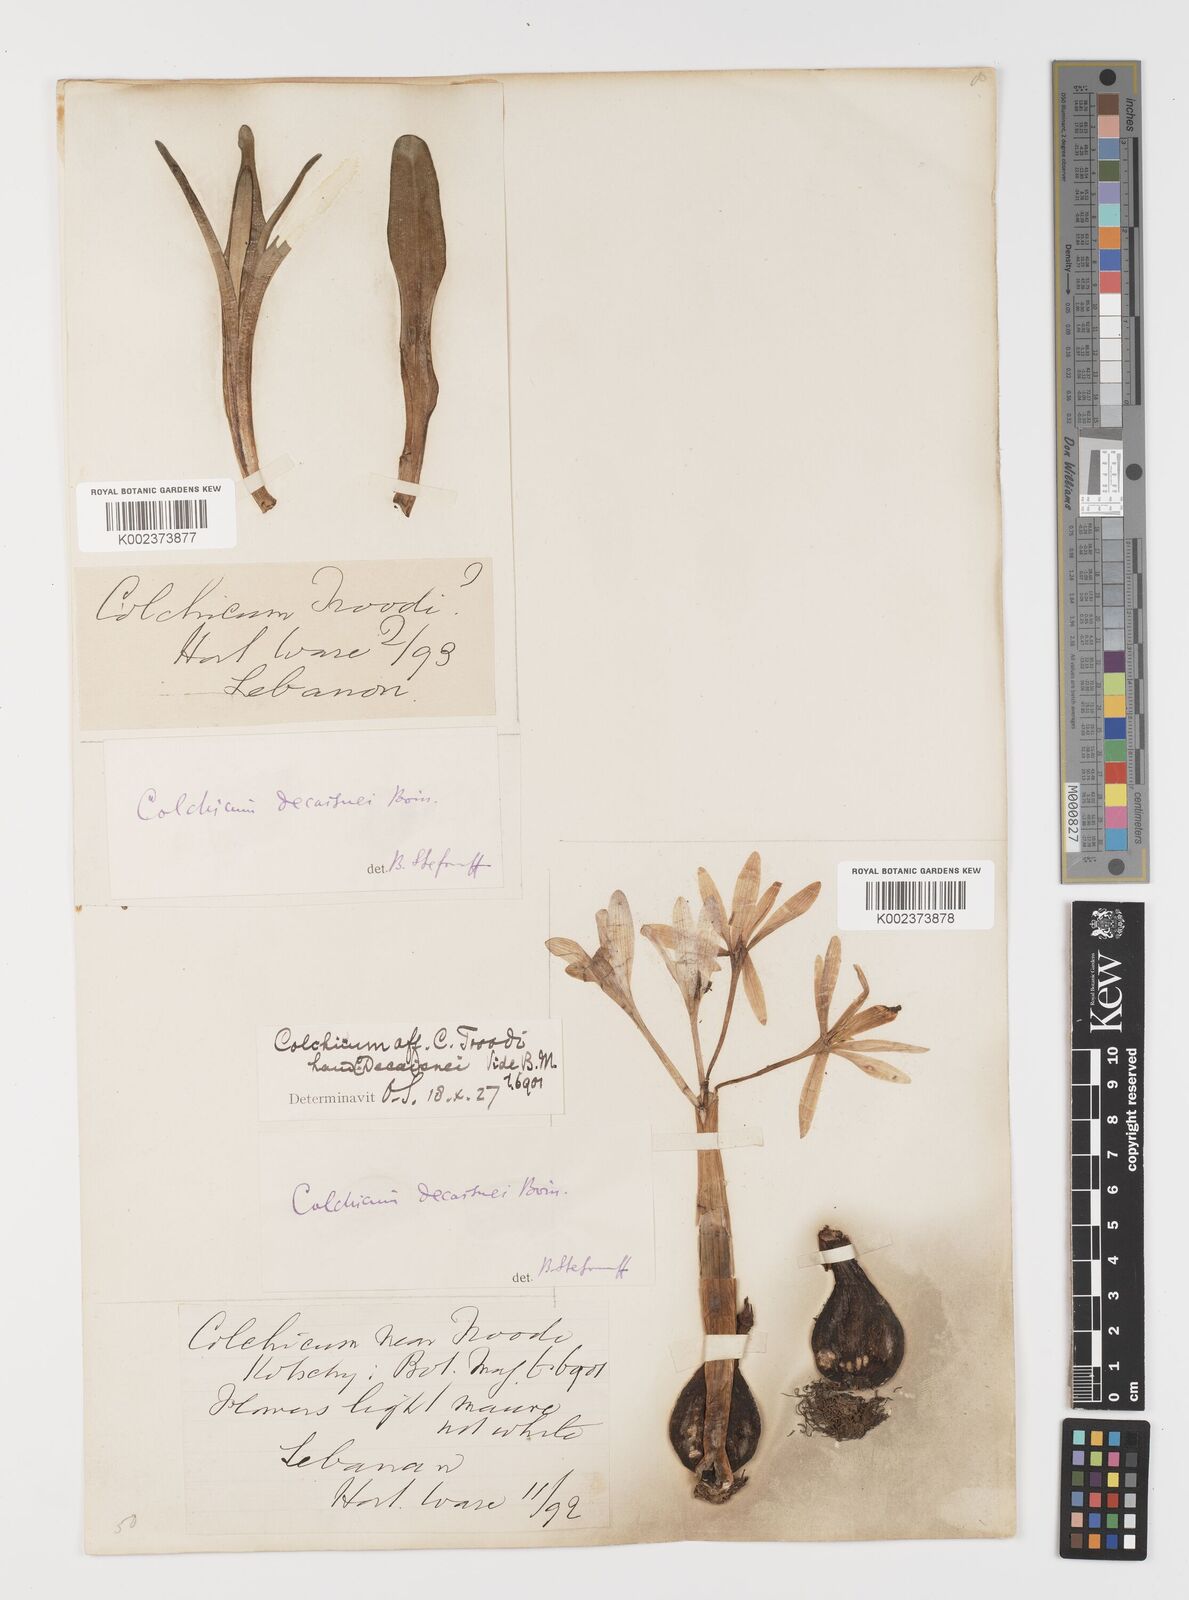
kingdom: Plantae
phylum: Tracheophyta
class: Liliopsida
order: Liliales
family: Colchicaceae
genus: Colchicum
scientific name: Colchicum decaisnei
